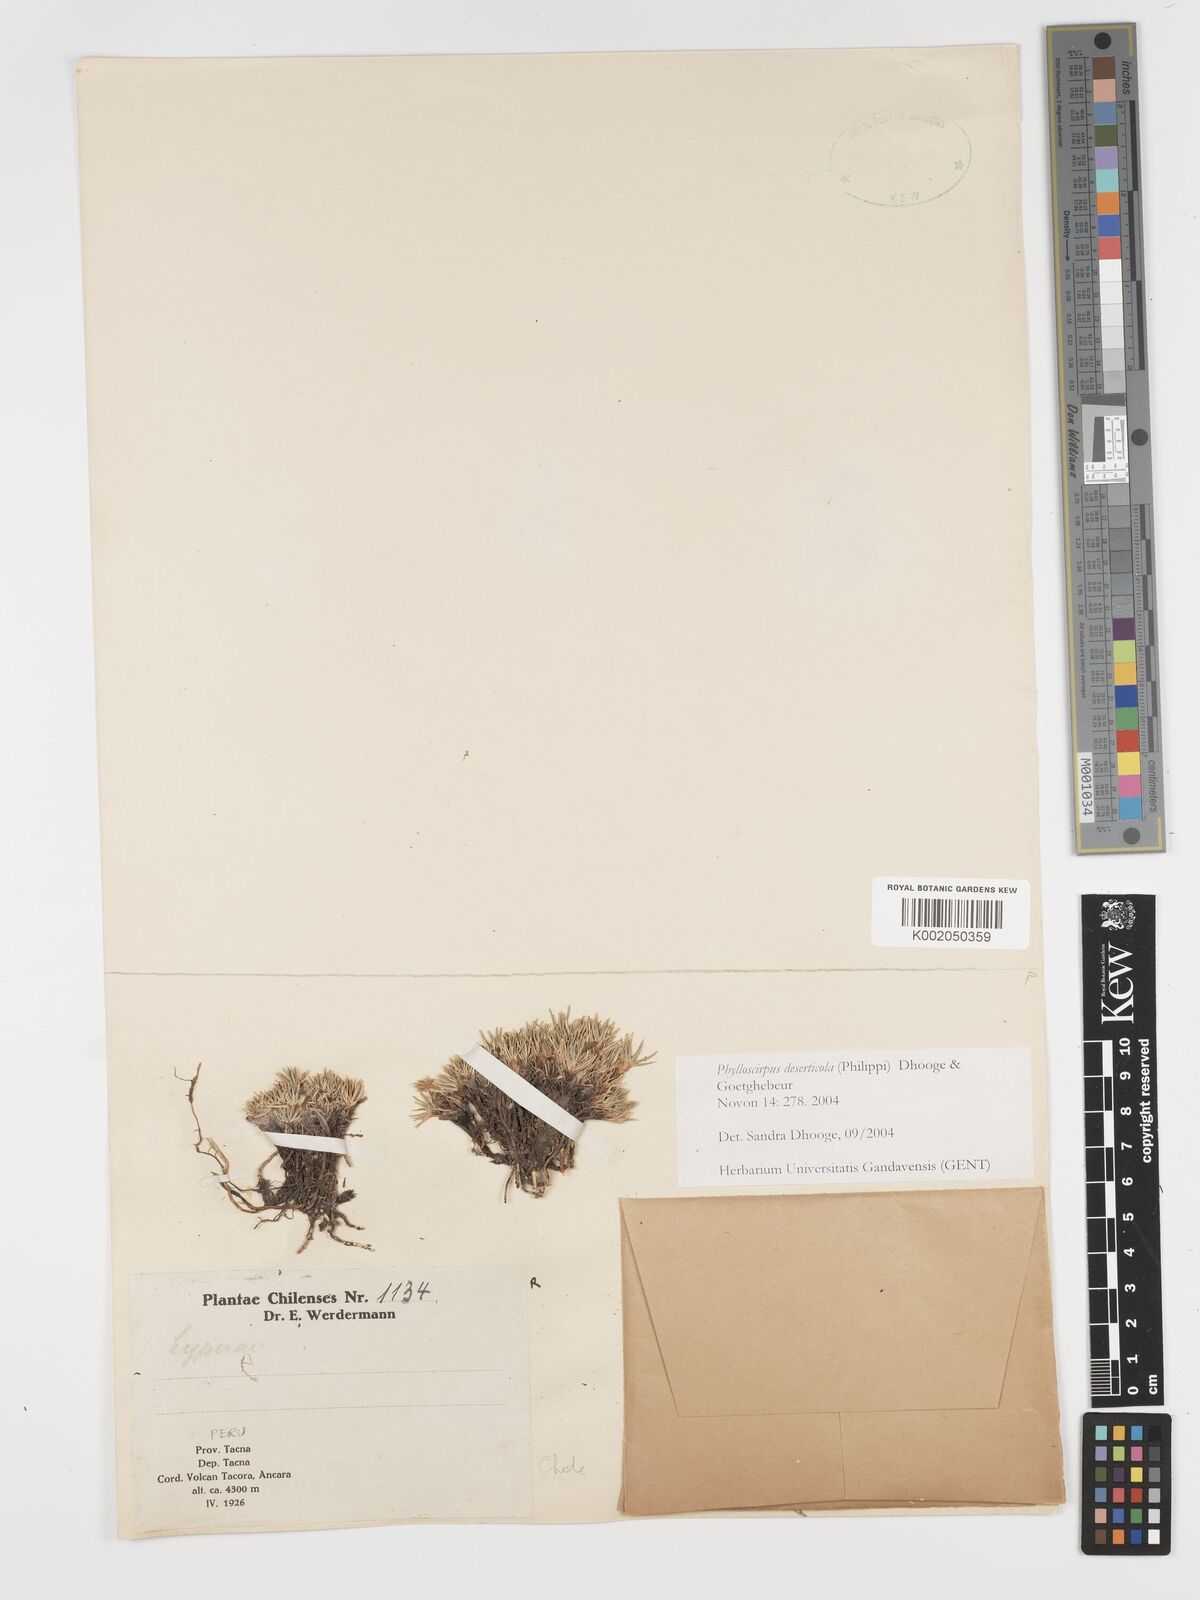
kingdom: Plantae
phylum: Tracheophyta
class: Liliopsida
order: Poales
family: Cyperaceae
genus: Phylloscirpus
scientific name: Phylloscirpus deserticola
